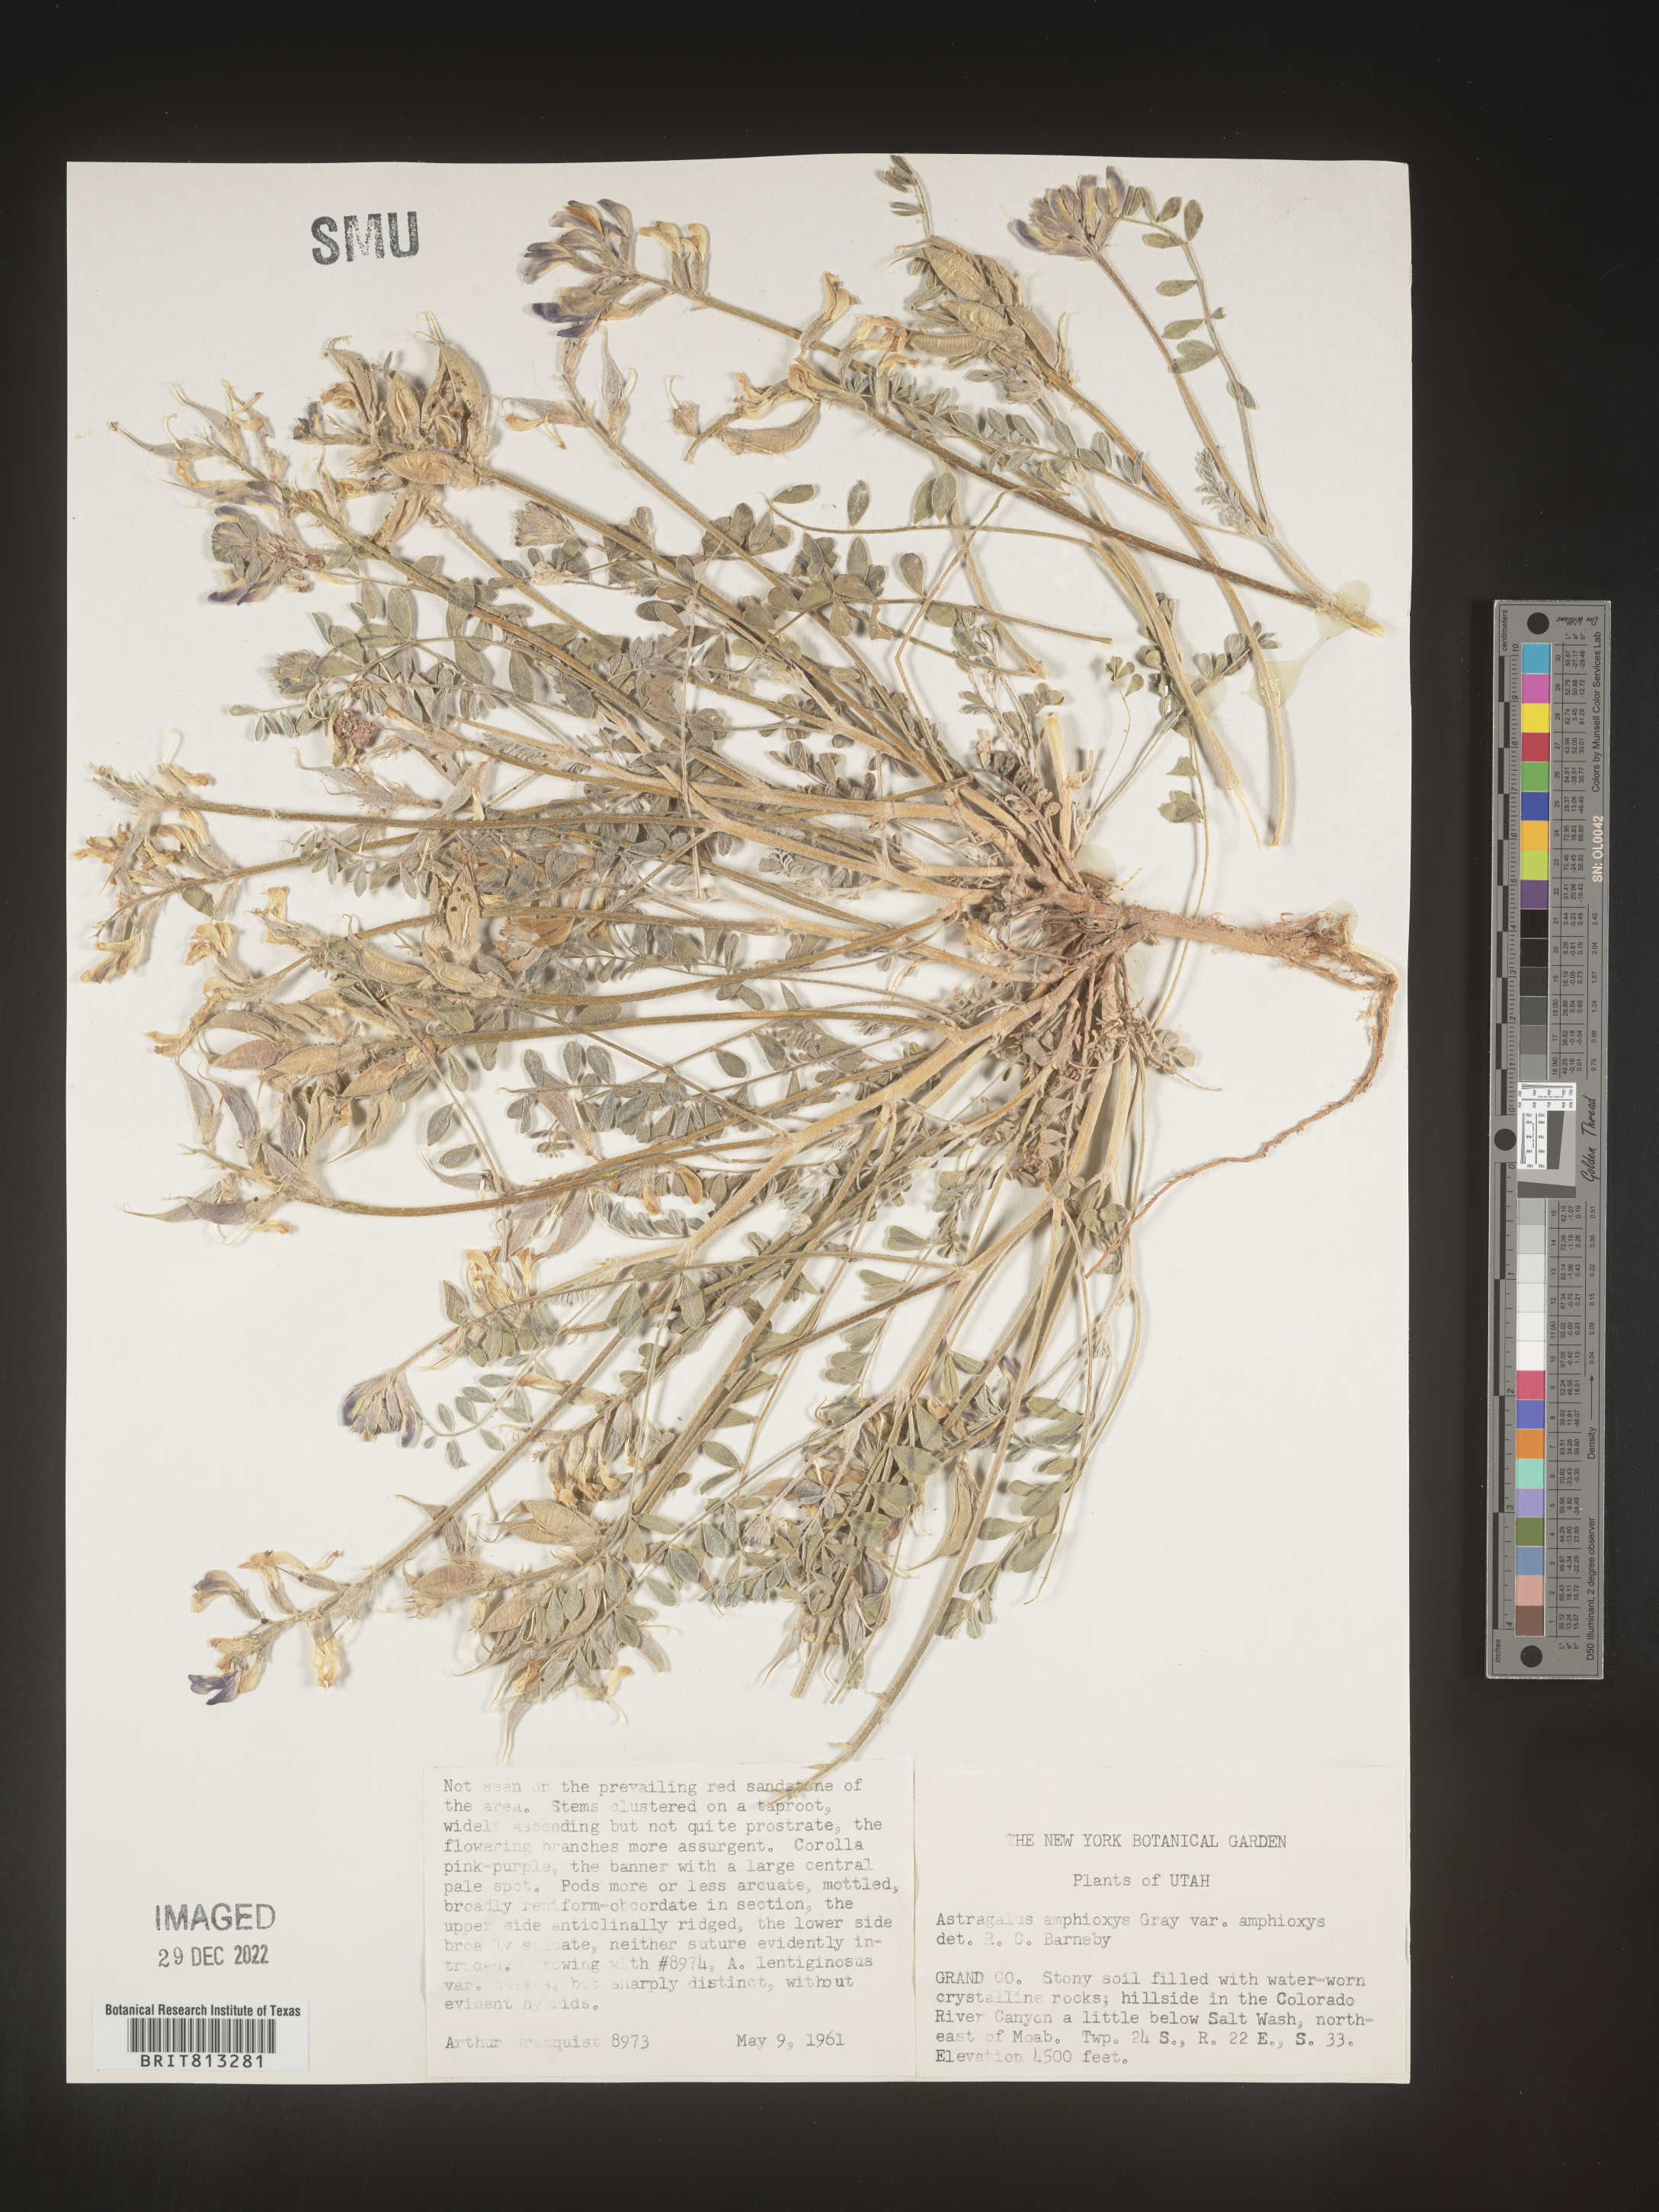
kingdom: Plantae
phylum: Tracheophyta
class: Magnoliopsida
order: Fabales
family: Fabaceae
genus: Astragalus
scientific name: Astragalus
